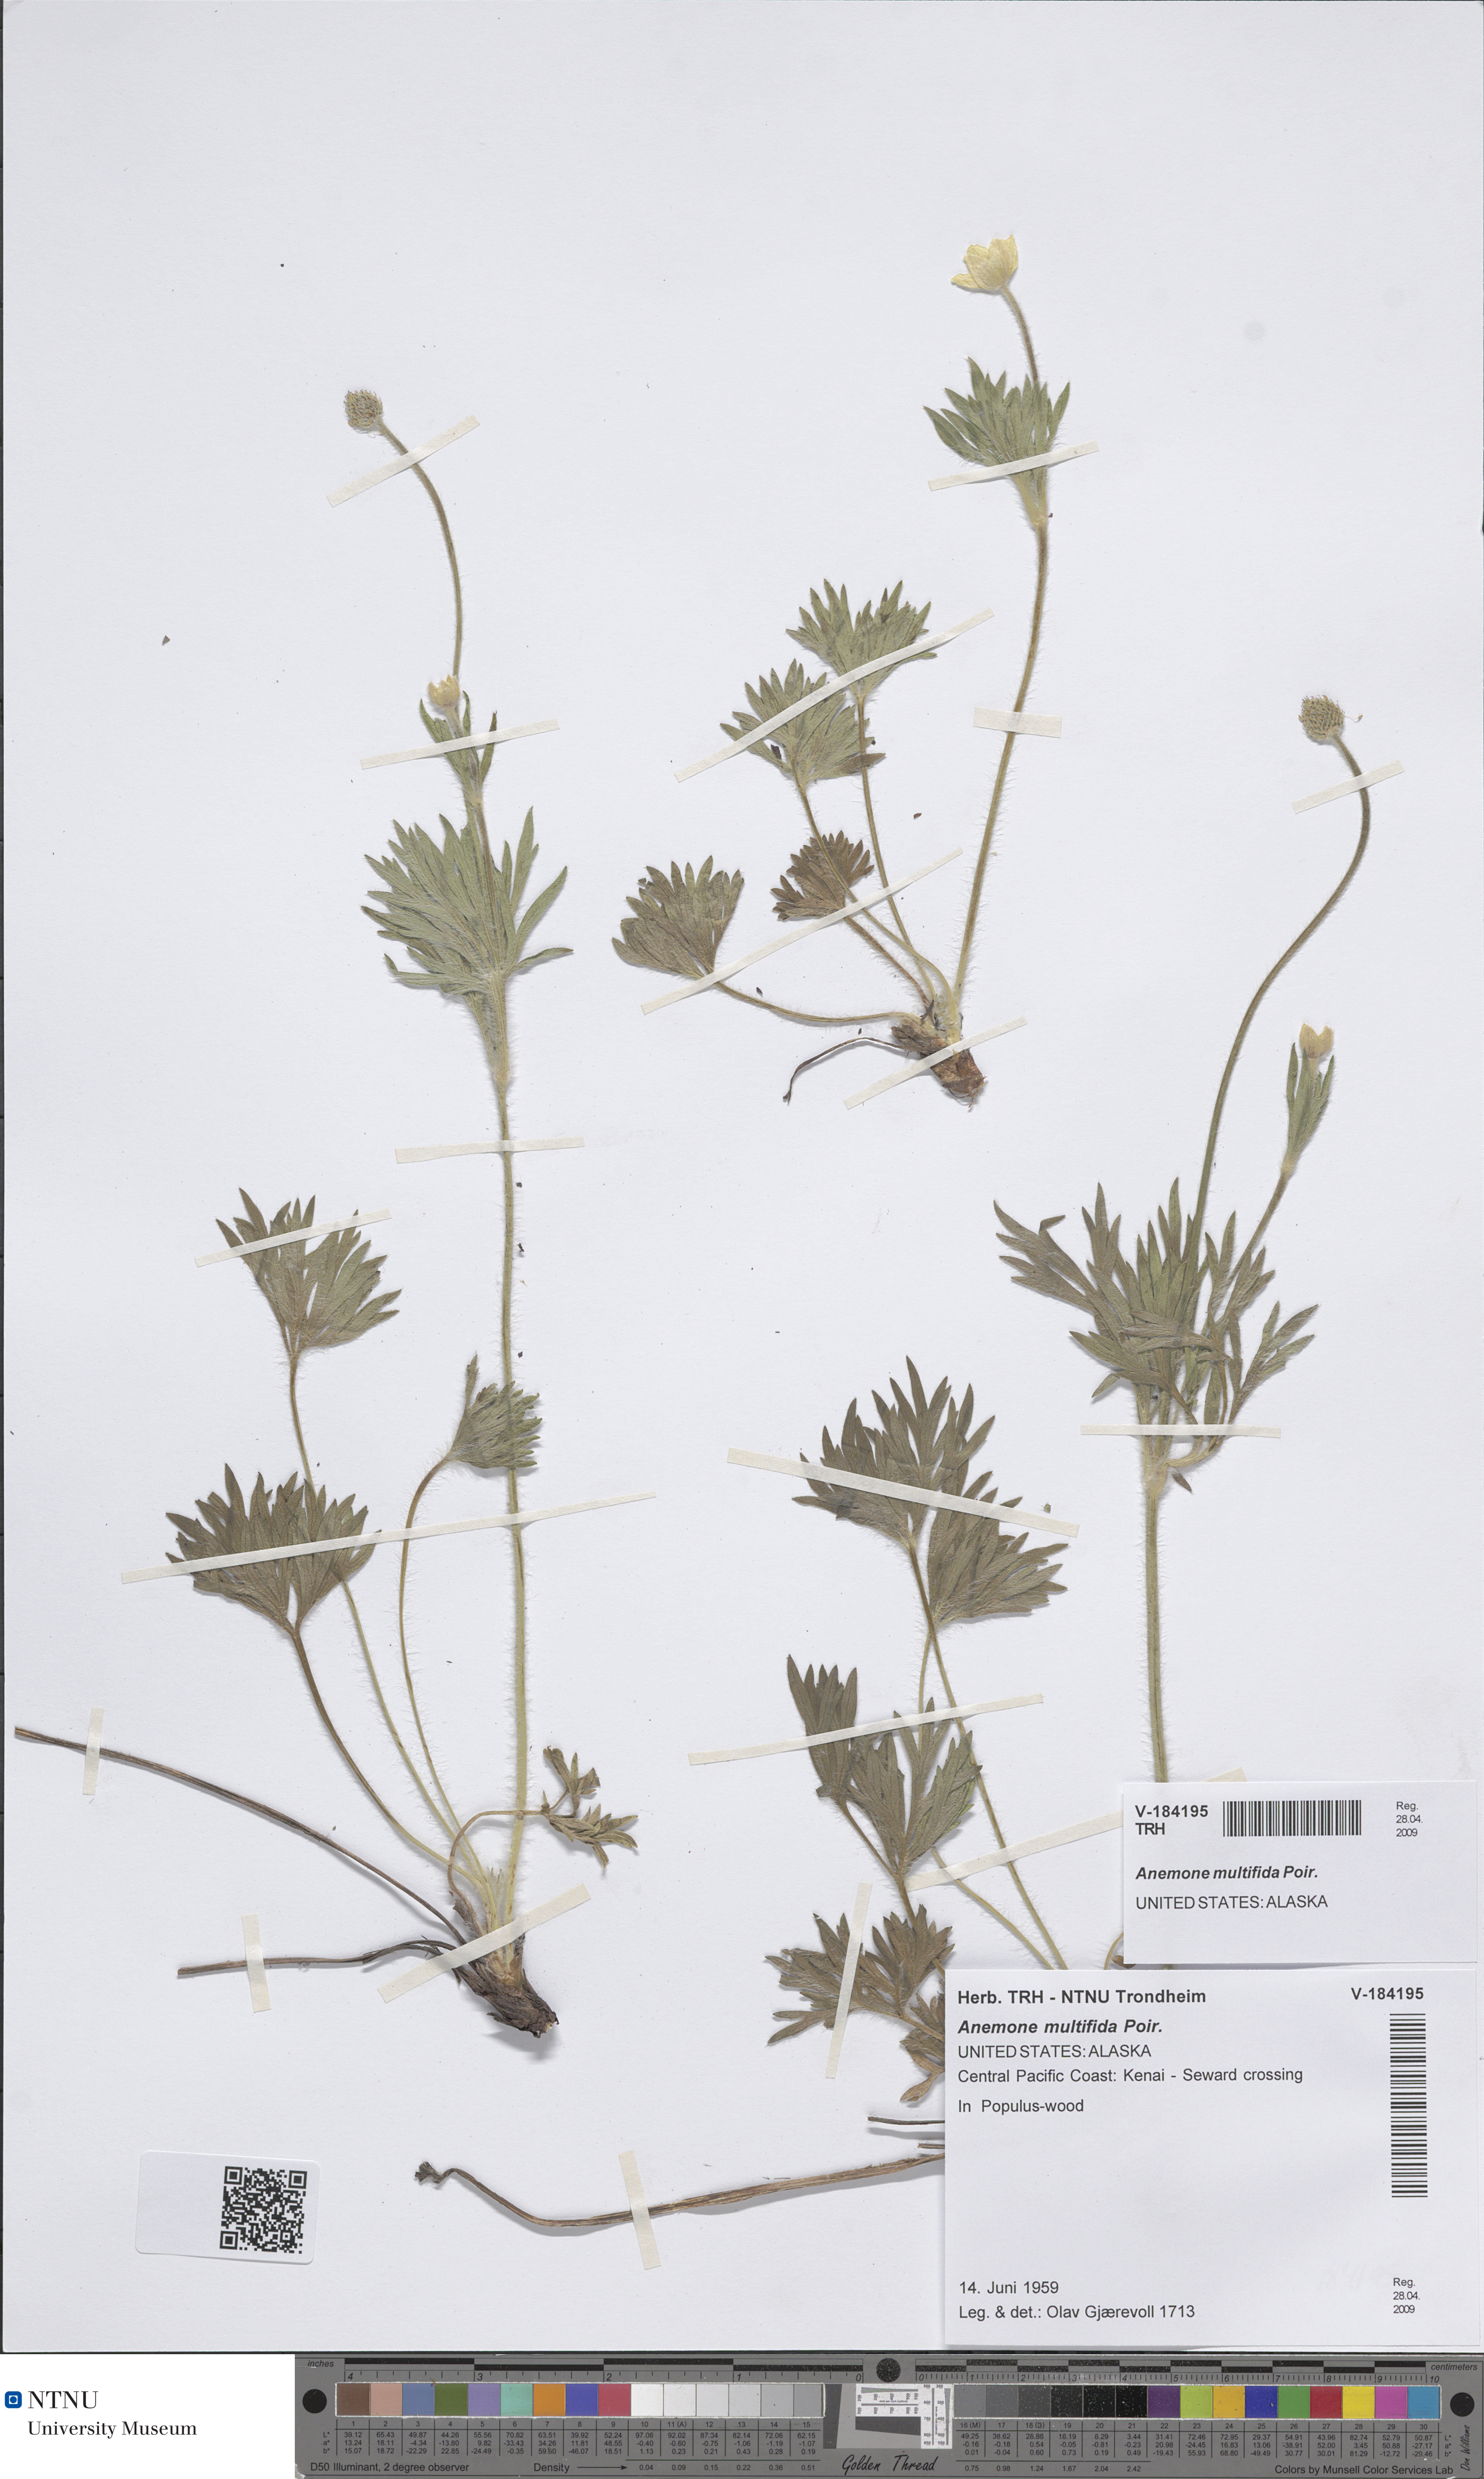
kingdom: Plantae
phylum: Tracheophyta
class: Magnoliopsida
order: Ranunculales
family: Ranunculaceae
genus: Anemone
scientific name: Anemone multifida
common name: Bird's-foot anemone
